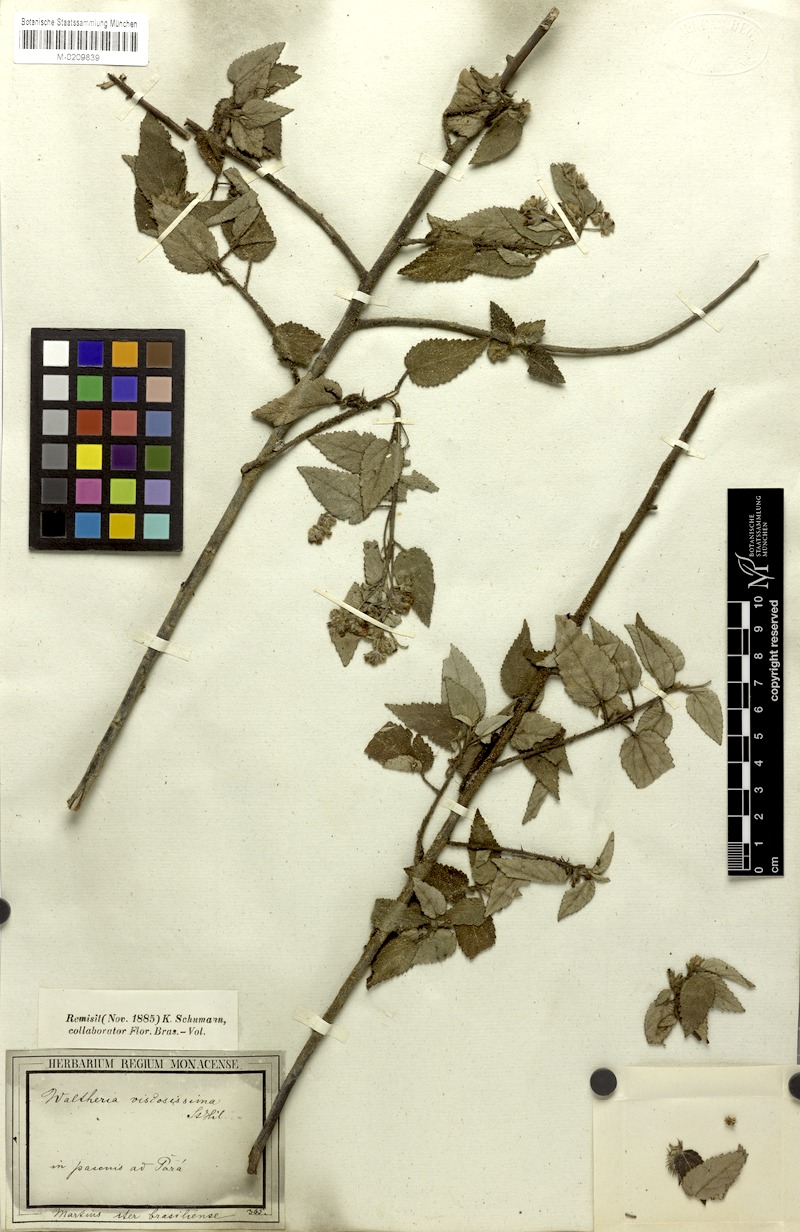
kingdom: Plantae
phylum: Tracheophyta
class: Magnoliopsida
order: Malvales
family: Malvaceae
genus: Waltheria
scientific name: Waltheria viscosissima
